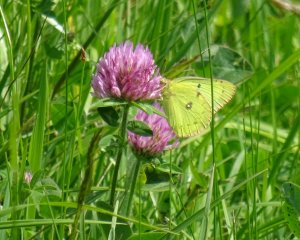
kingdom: Animalia
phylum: Arthropoda
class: Insecta
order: Lepidoptera
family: Pieridae
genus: Colias
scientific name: Colias philodice
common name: Clouded Sulphur
